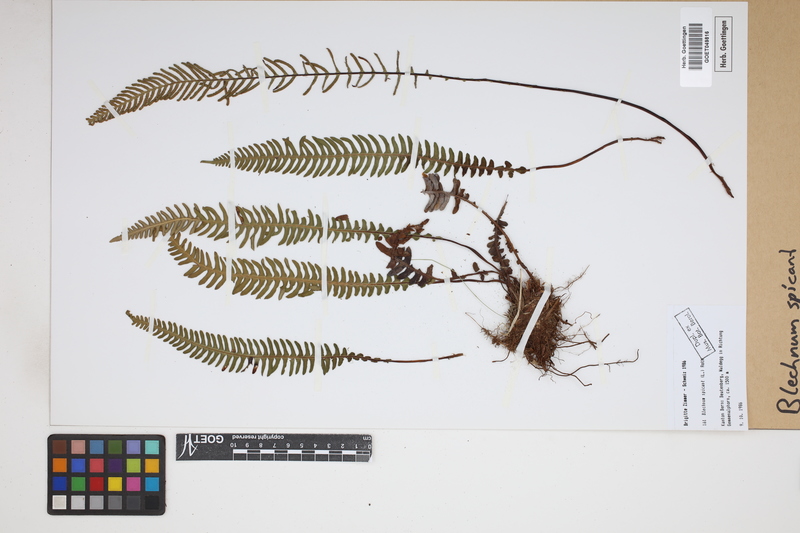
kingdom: Plantae
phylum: Tracheophyta
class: Polypodiopsida
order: Polypodiales
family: Blechnaceae
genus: Struthiopteris
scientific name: Struthiopteris spicant
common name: Deer fern
